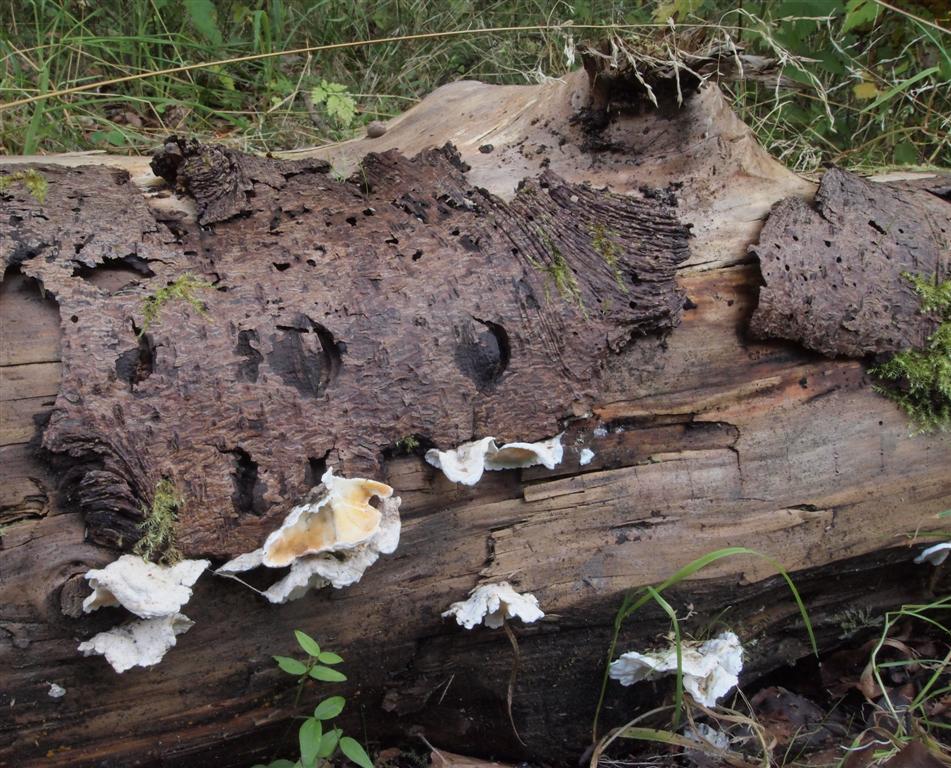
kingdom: Fungi
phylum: Basidiomycota
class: Agaricomycetes
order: Polyporales
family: Incrustoporiaceae
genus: Skeletocutis
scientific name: Skeletocutis amorpha
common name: orange krystalporesvamp
